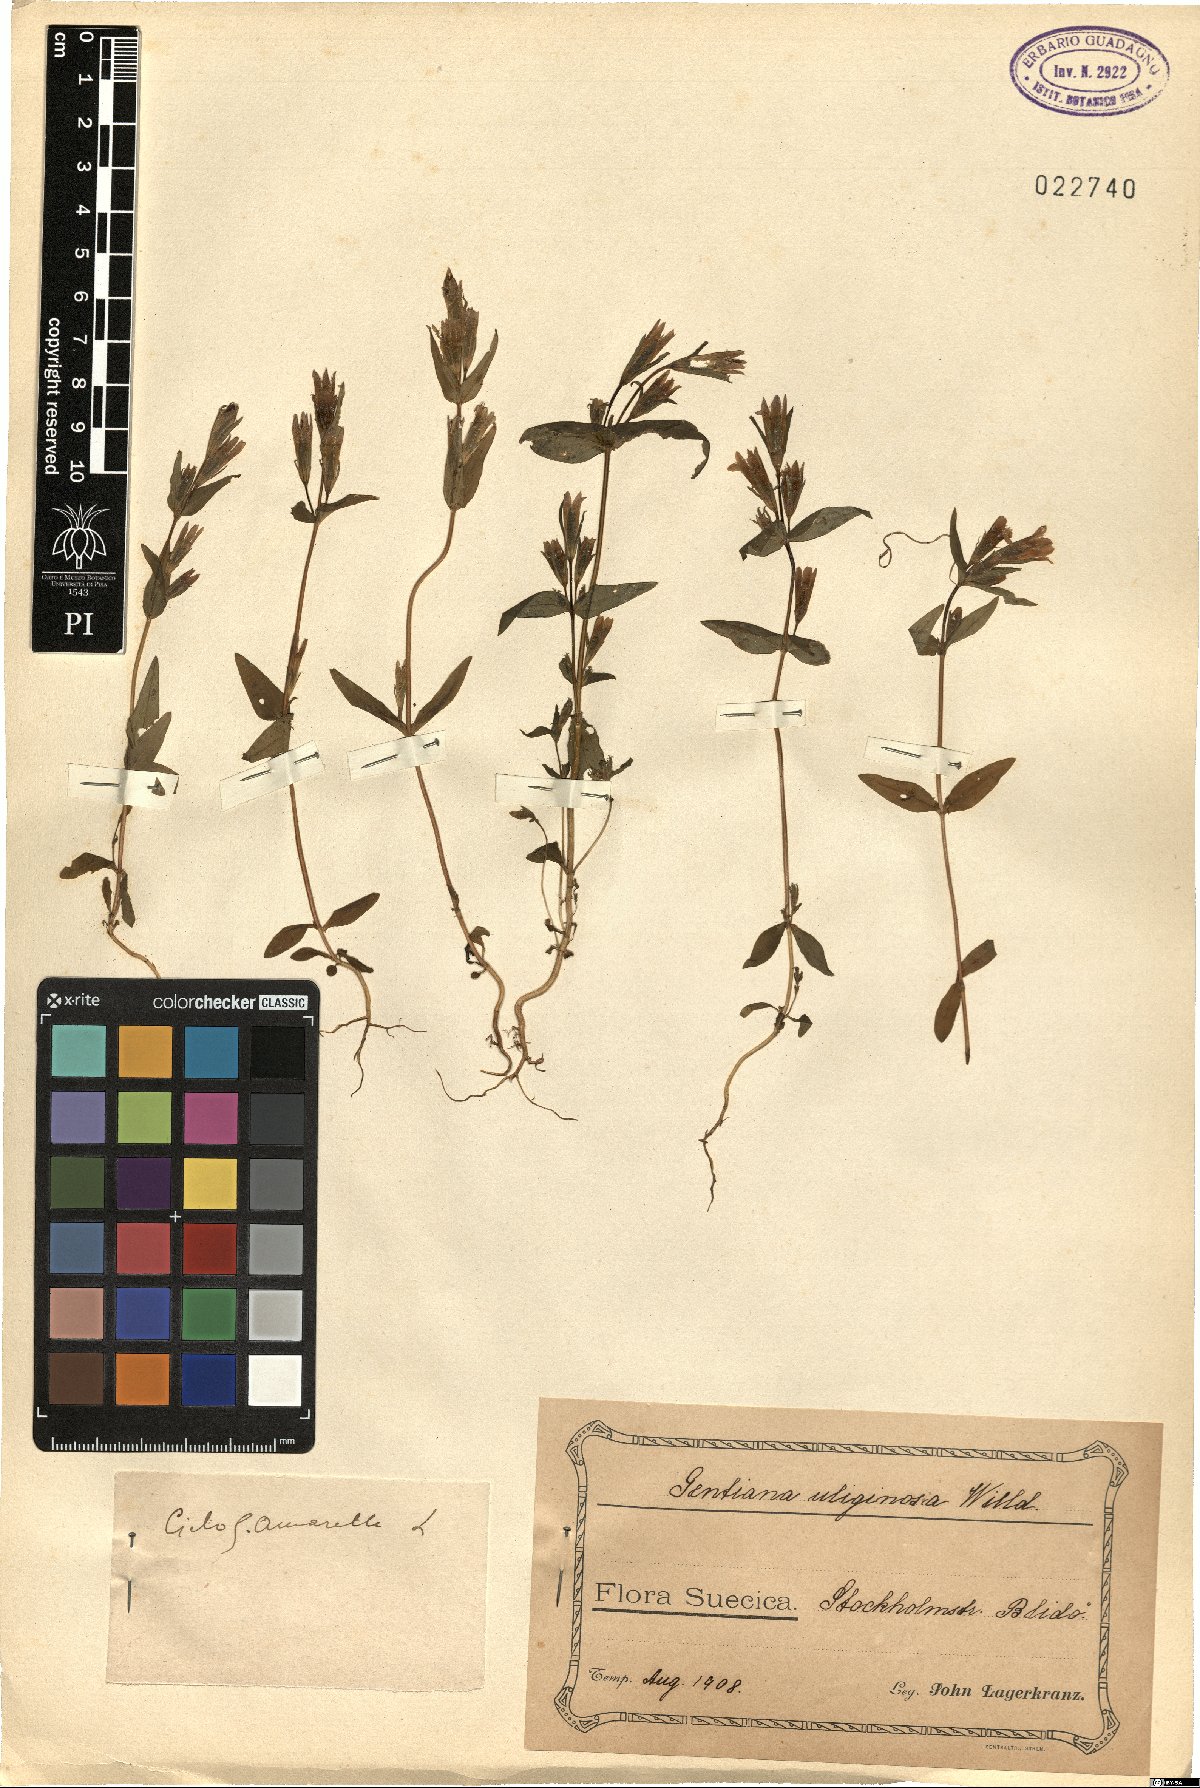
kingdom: Plantae
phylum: Tracheophyta
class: Magnoliopsida
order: Gentianales
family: Gentianaceae
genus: Gentianella
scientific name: Gentianella uliginosa
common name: Dune gentian
